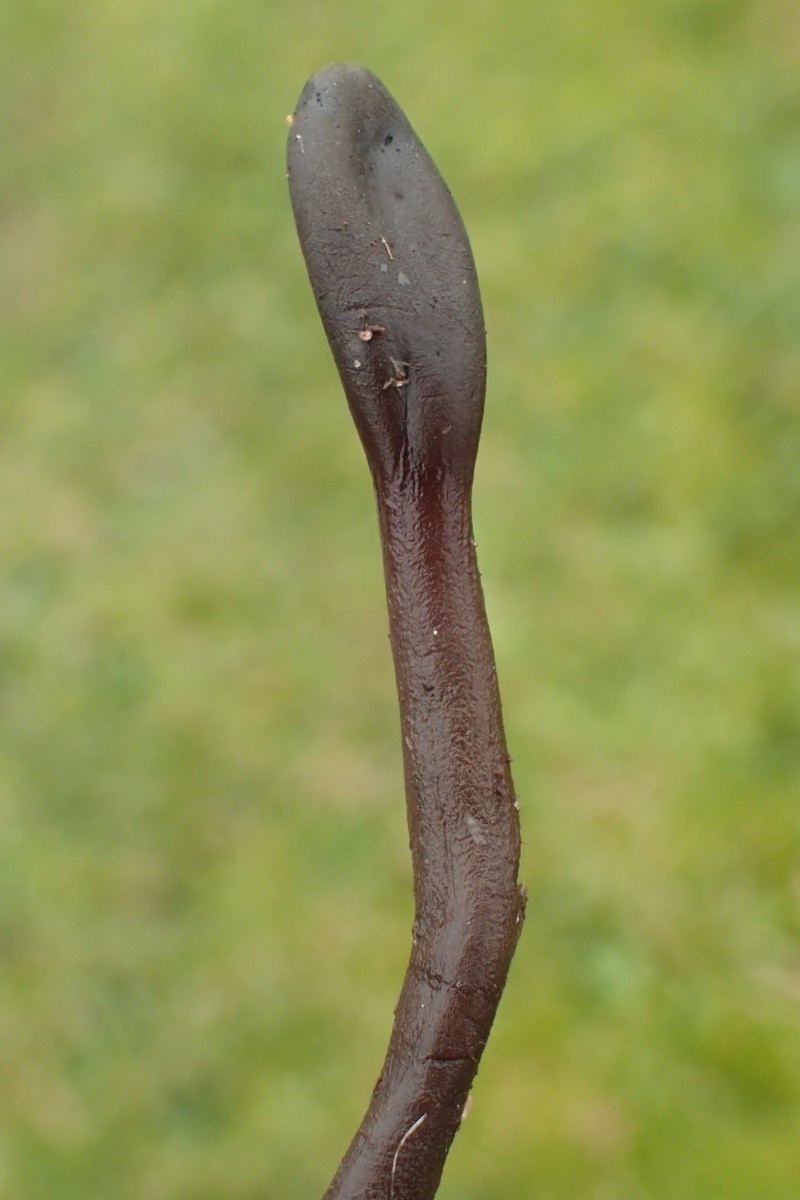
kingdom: Fungi
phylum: Ascomycota
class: Geoglossomycetes
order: Geoglossales
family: Geoglossaceae
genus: Geoglossum
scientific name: Geoglossum umbratile
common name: slank jordtunge
